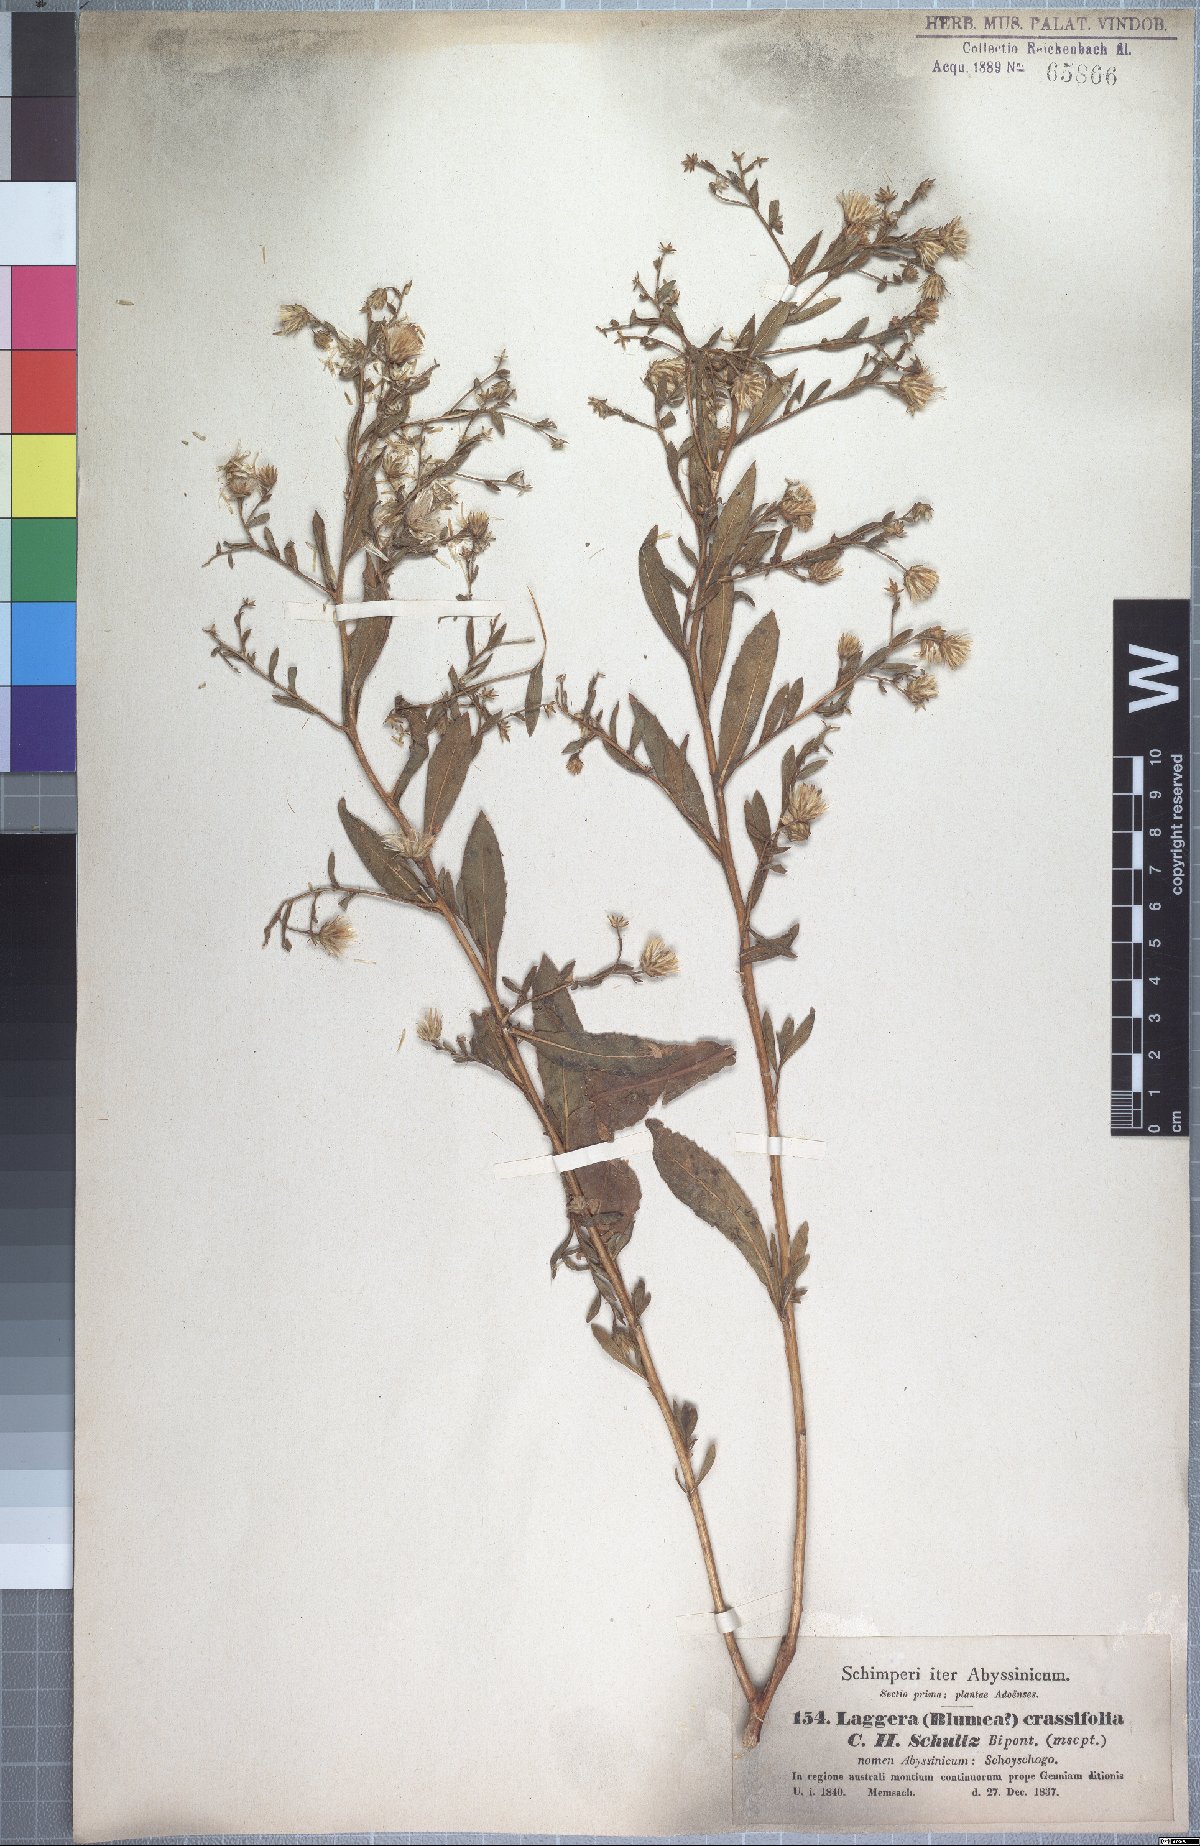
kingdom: Plantae
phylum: Tracheophyta
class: Magnoliopsida
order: Asterales
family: Asteraceae
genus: Laggera
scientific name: Laggera crassifolia
